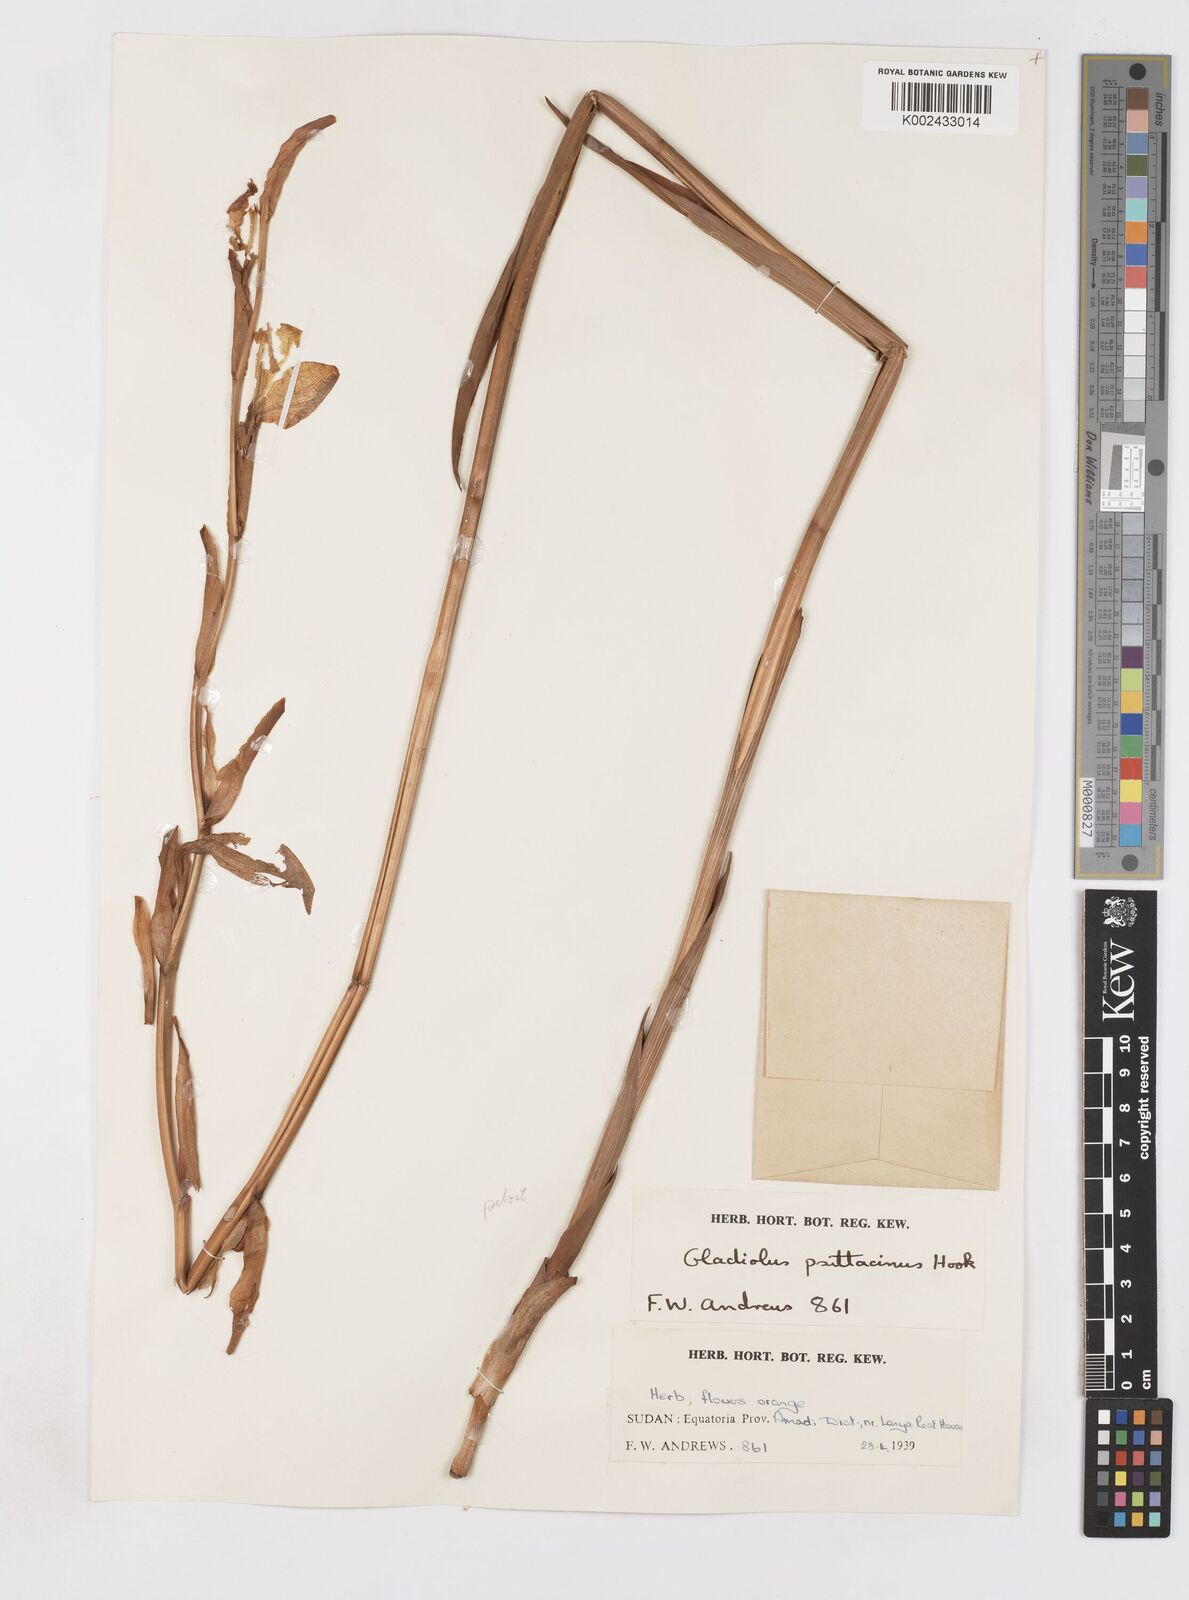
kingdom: Plantae
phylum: Tracheophyta
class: Liliopsida
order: Asparagales
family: Iridaceae
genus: Gladiolus
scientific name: Gladiolus dalenii
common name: Cornflag
